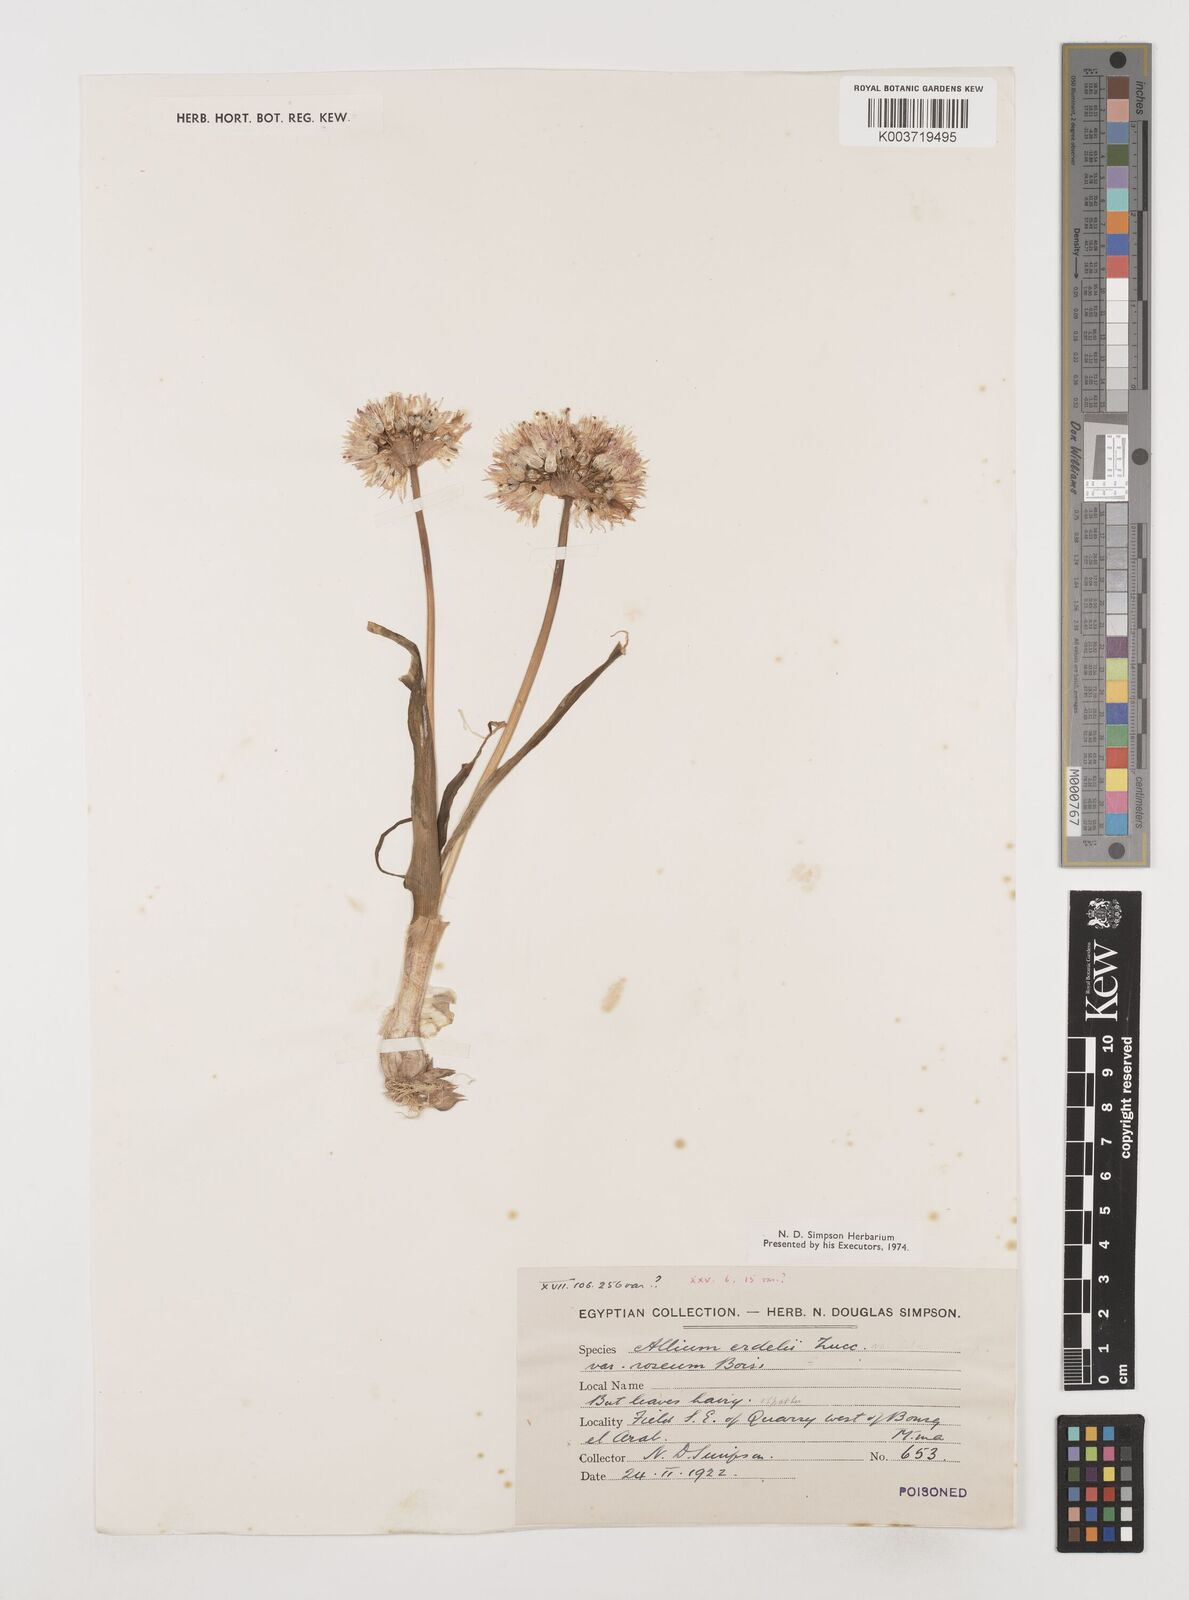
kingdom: Plantae
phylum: Tracheophyta
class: Liliopsida
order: Asparagales
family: Amaryllidaceae
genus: Allium
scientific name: Allium erdelii
